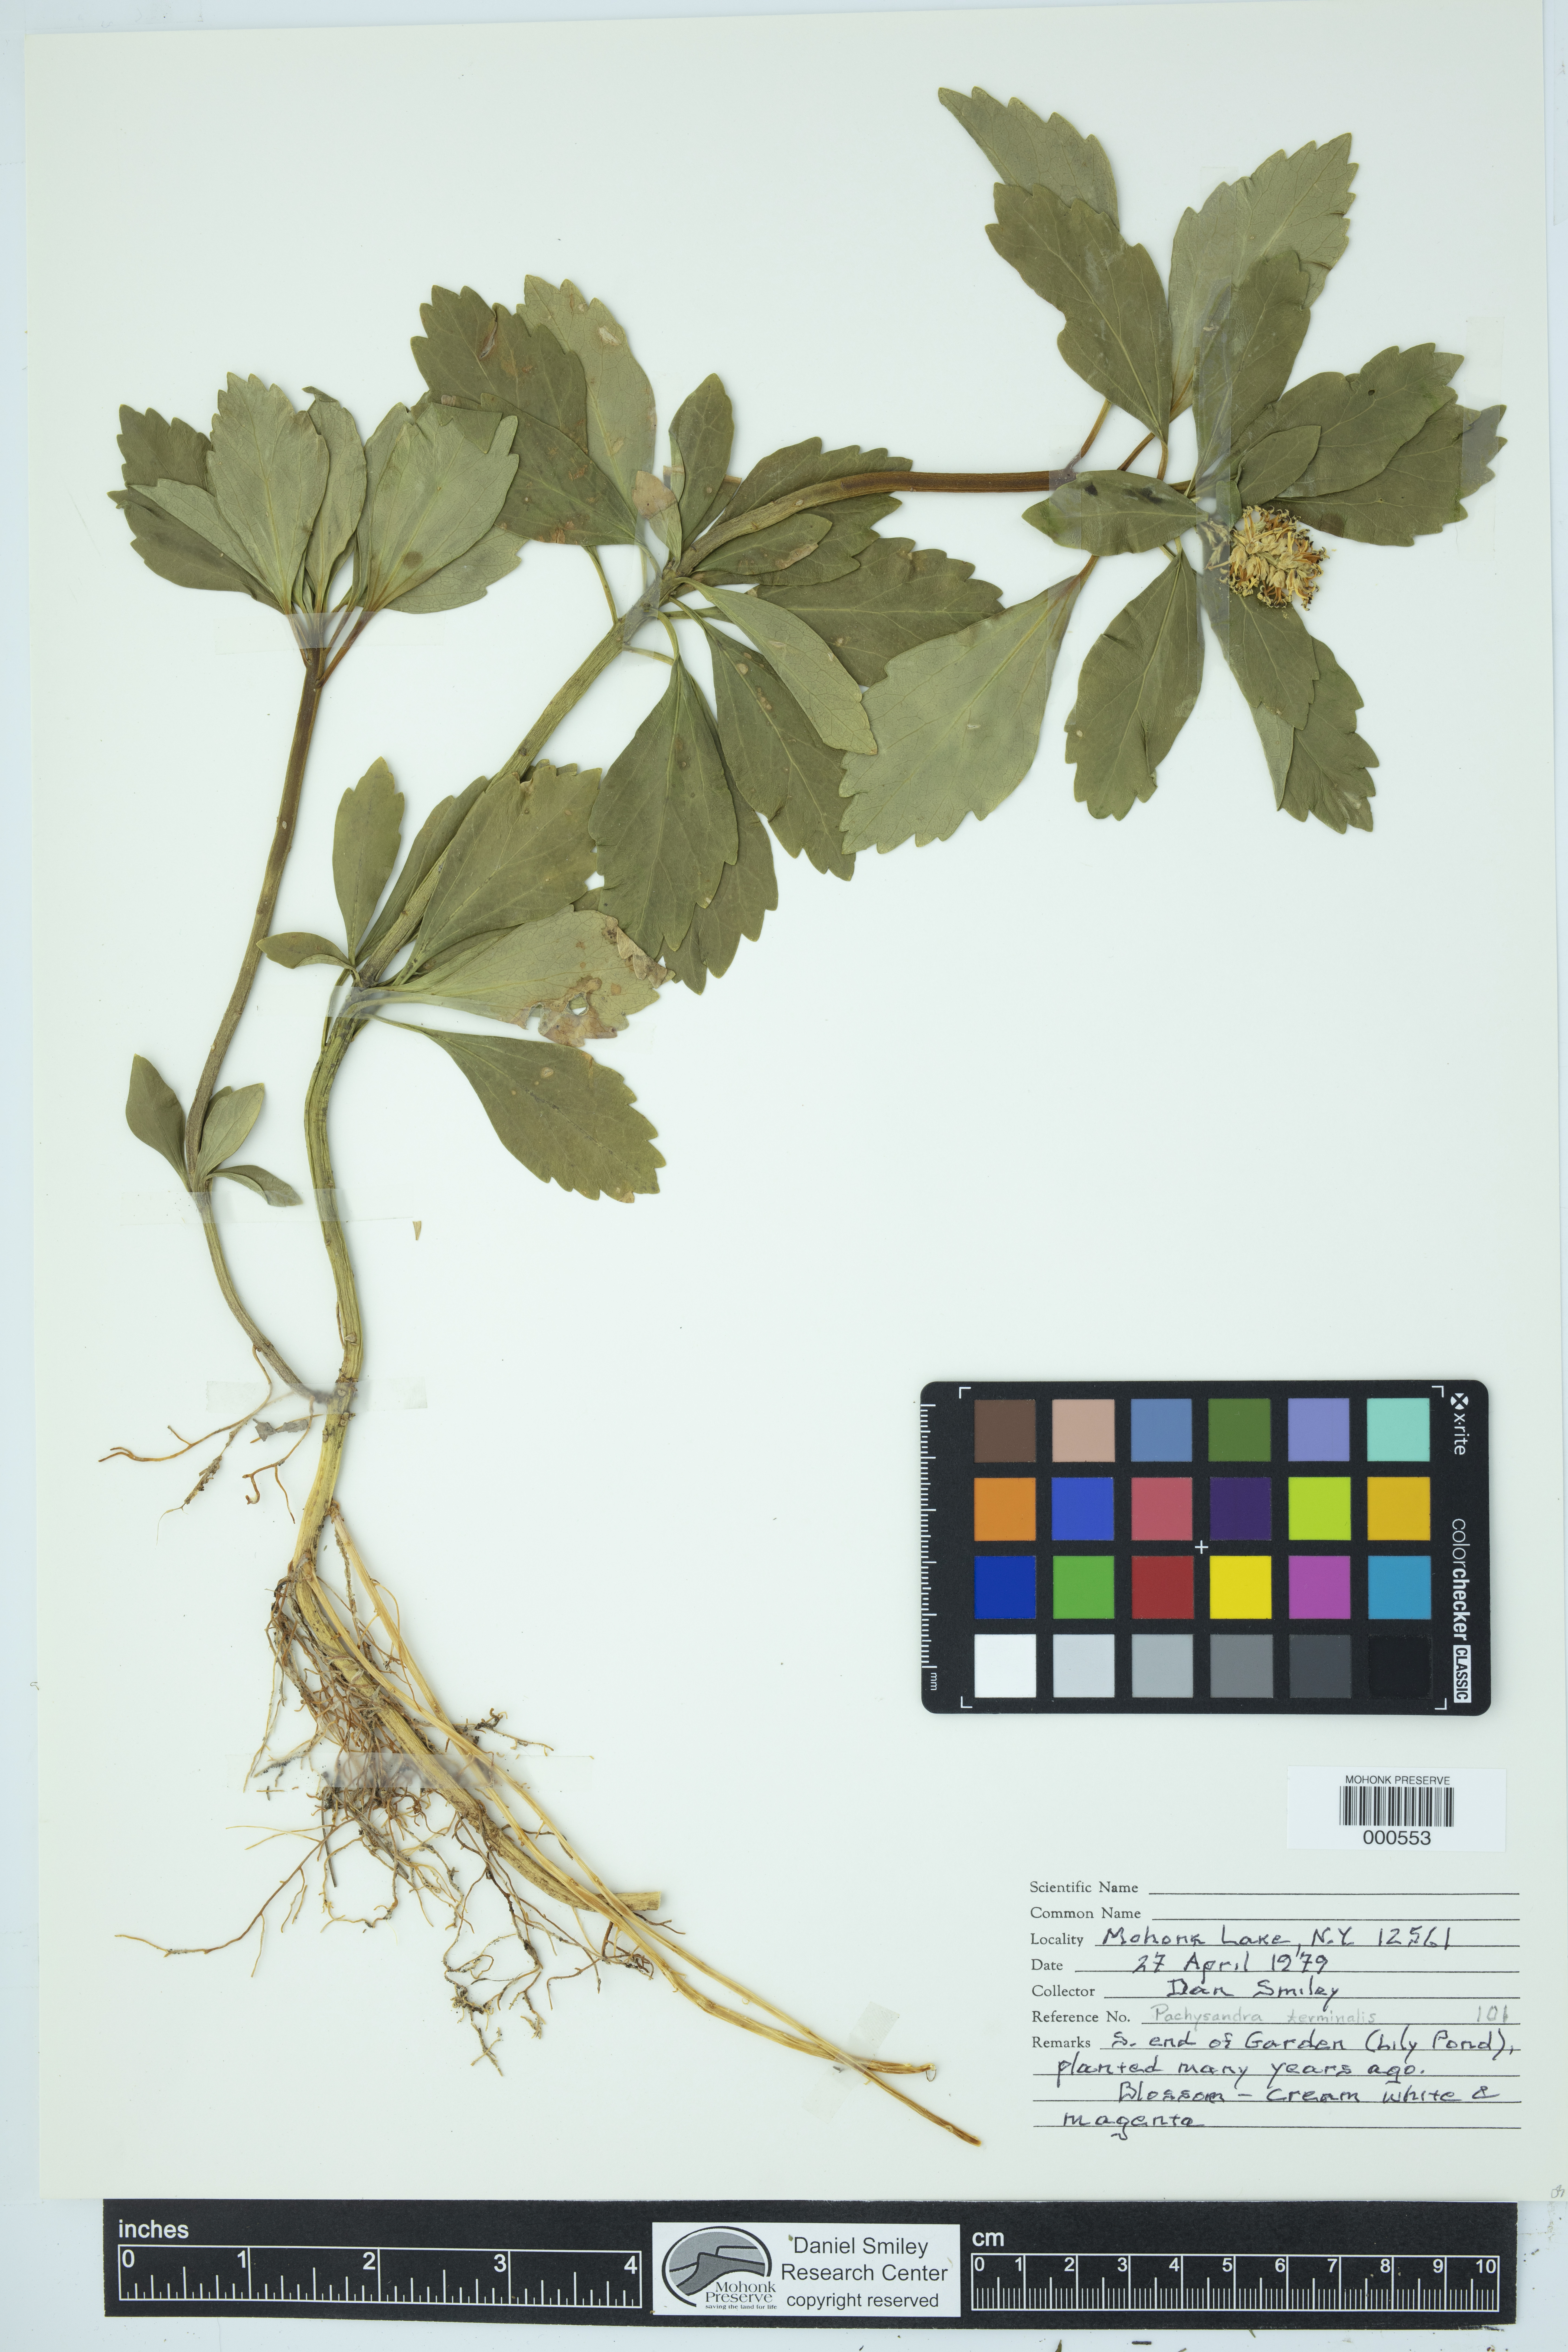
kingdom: Plantae
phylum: Tracheophyta
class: Magnoliopsida
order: Buxales
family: Buxaceae
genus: Pachysandra
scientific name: Pachysandra terminalis
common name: Japanese pachysandra
